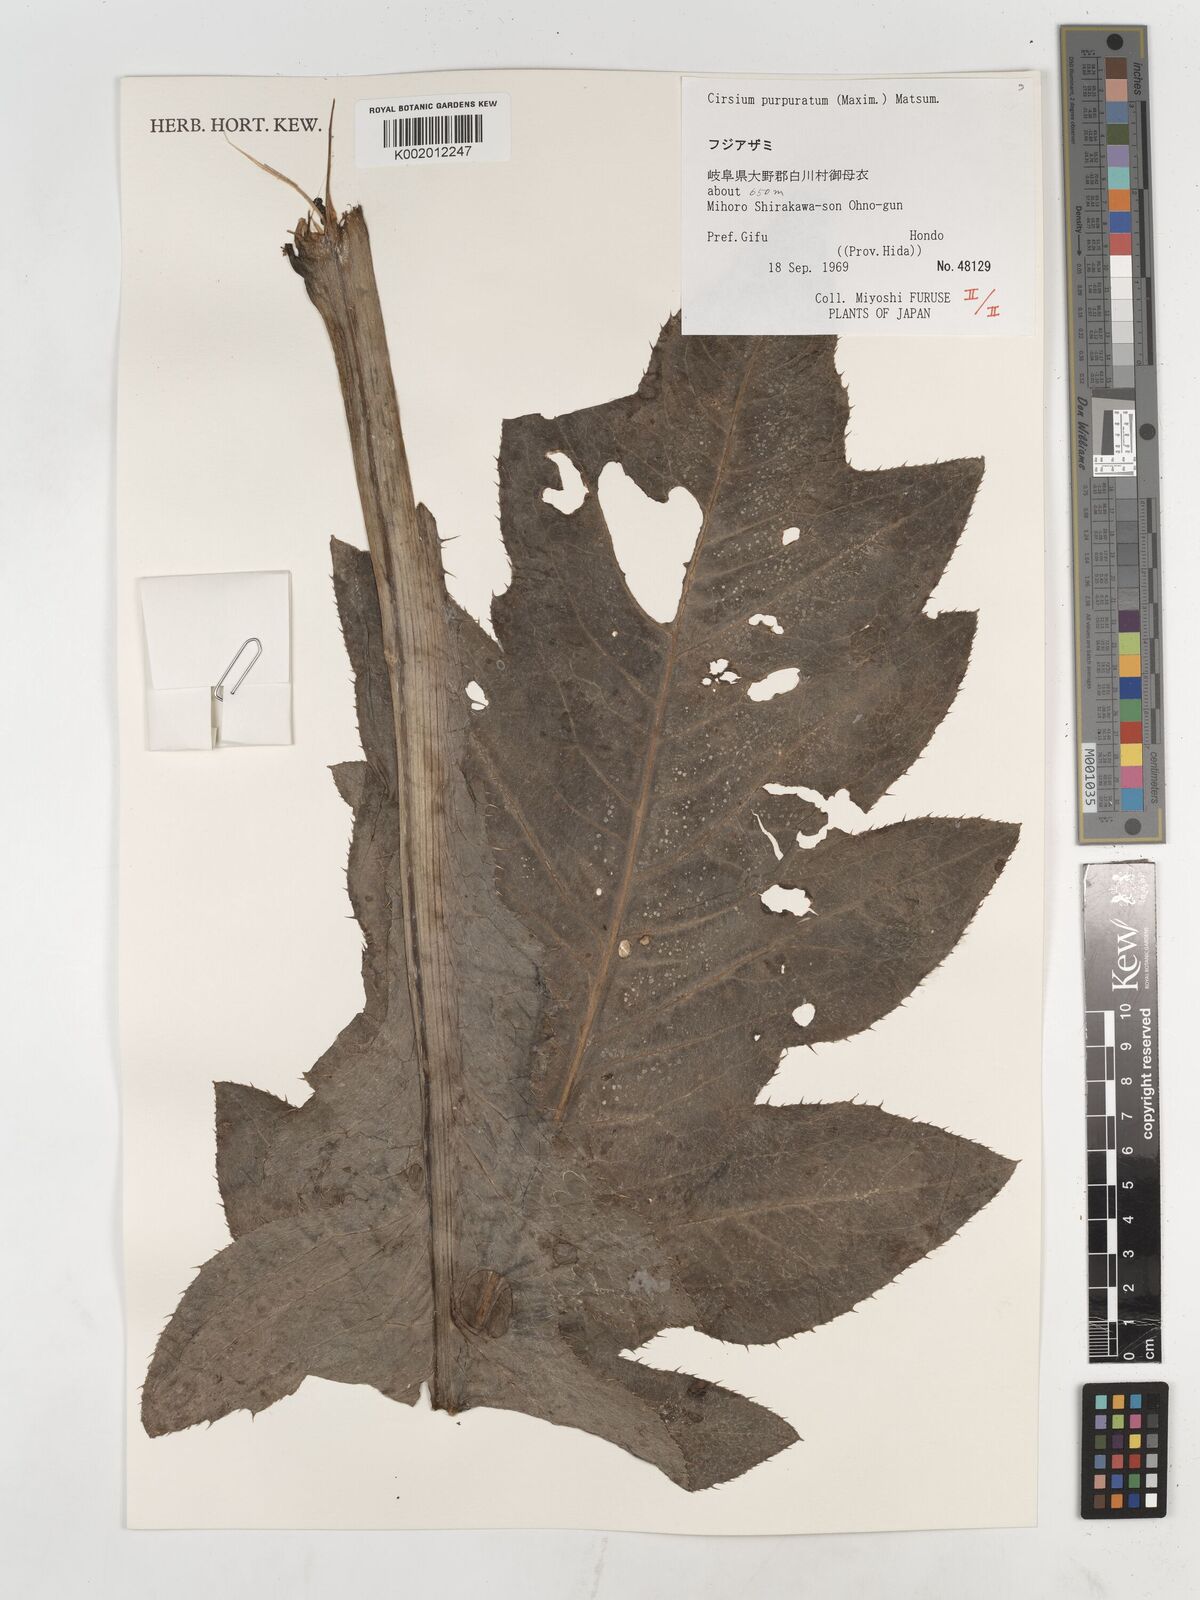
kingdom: Plantae
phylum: Tracheophyta
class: Magnoliopsida
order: Asterales
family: Asteraceae
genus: Cirsium
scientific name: Cirsium purpuratum
